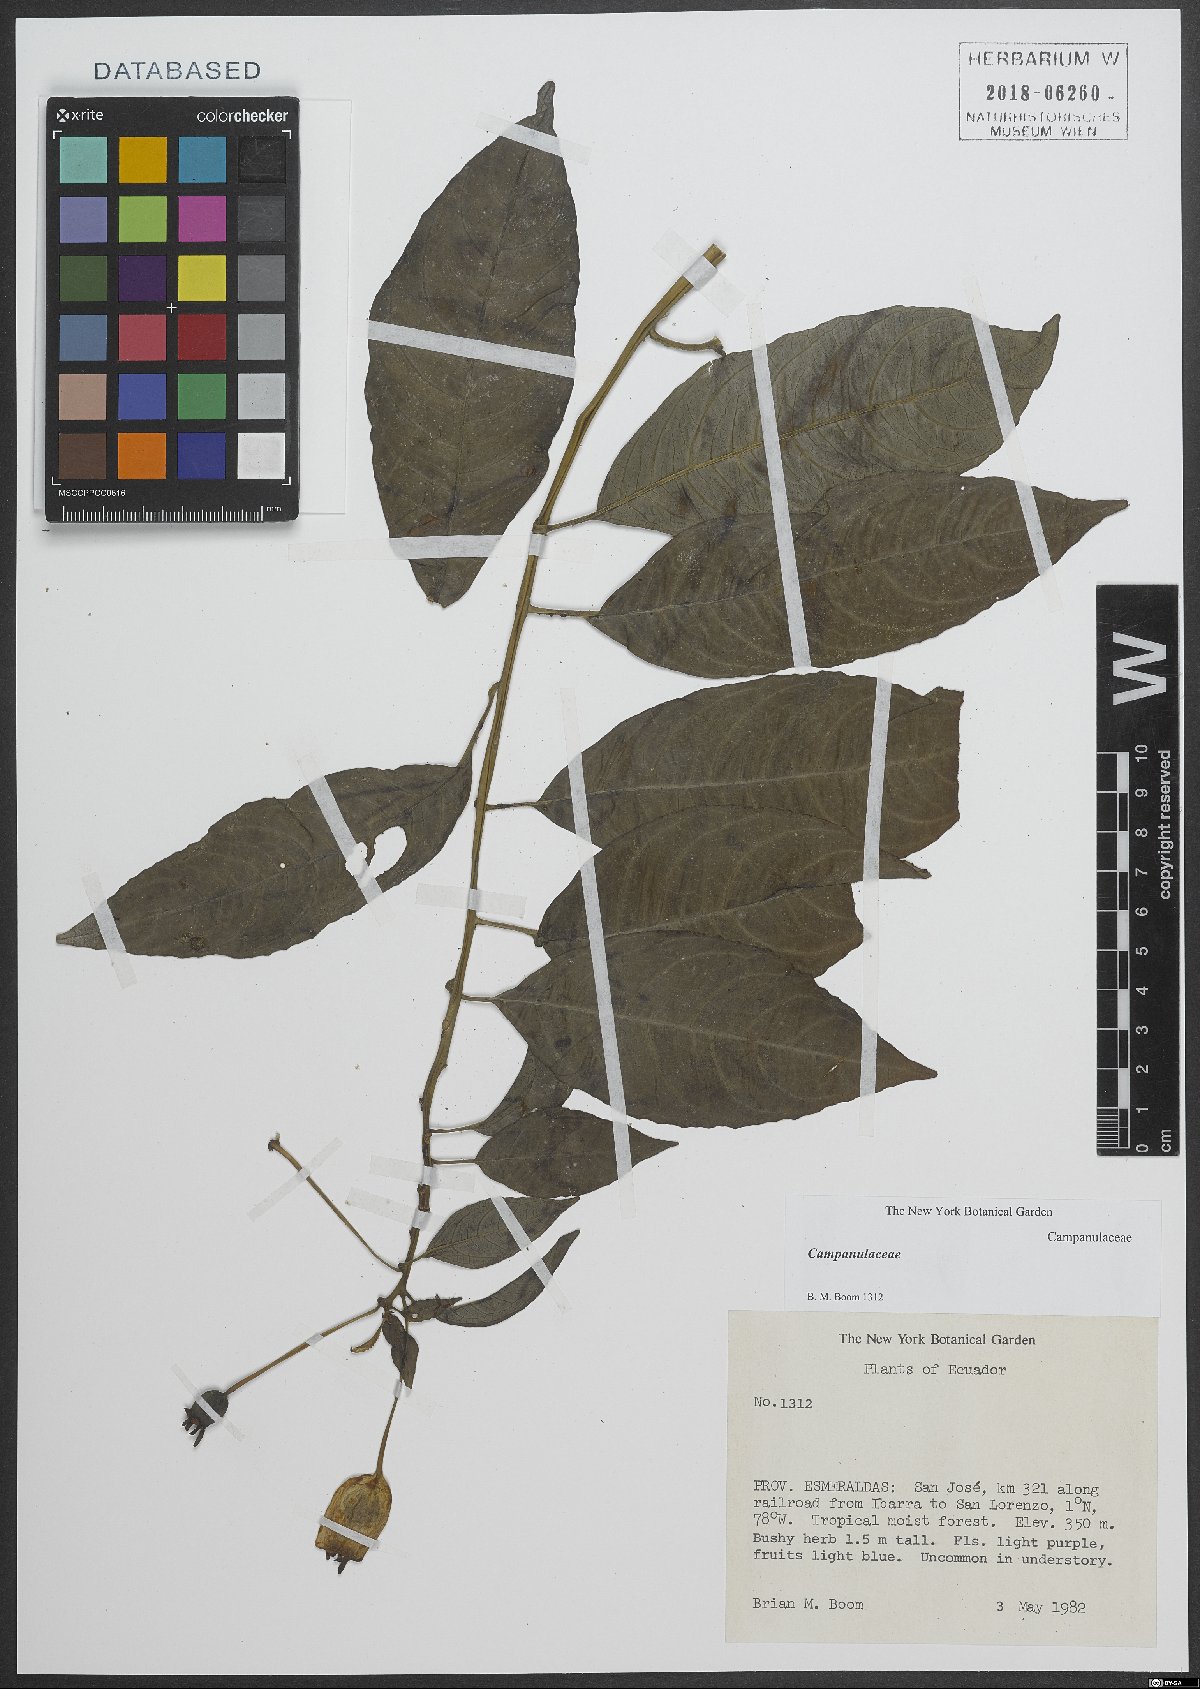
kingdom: Plantae
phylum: Tracheophyta
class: Magnoliopsida
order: Asterales
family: Campanulaceae
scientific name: Campanulaceae
